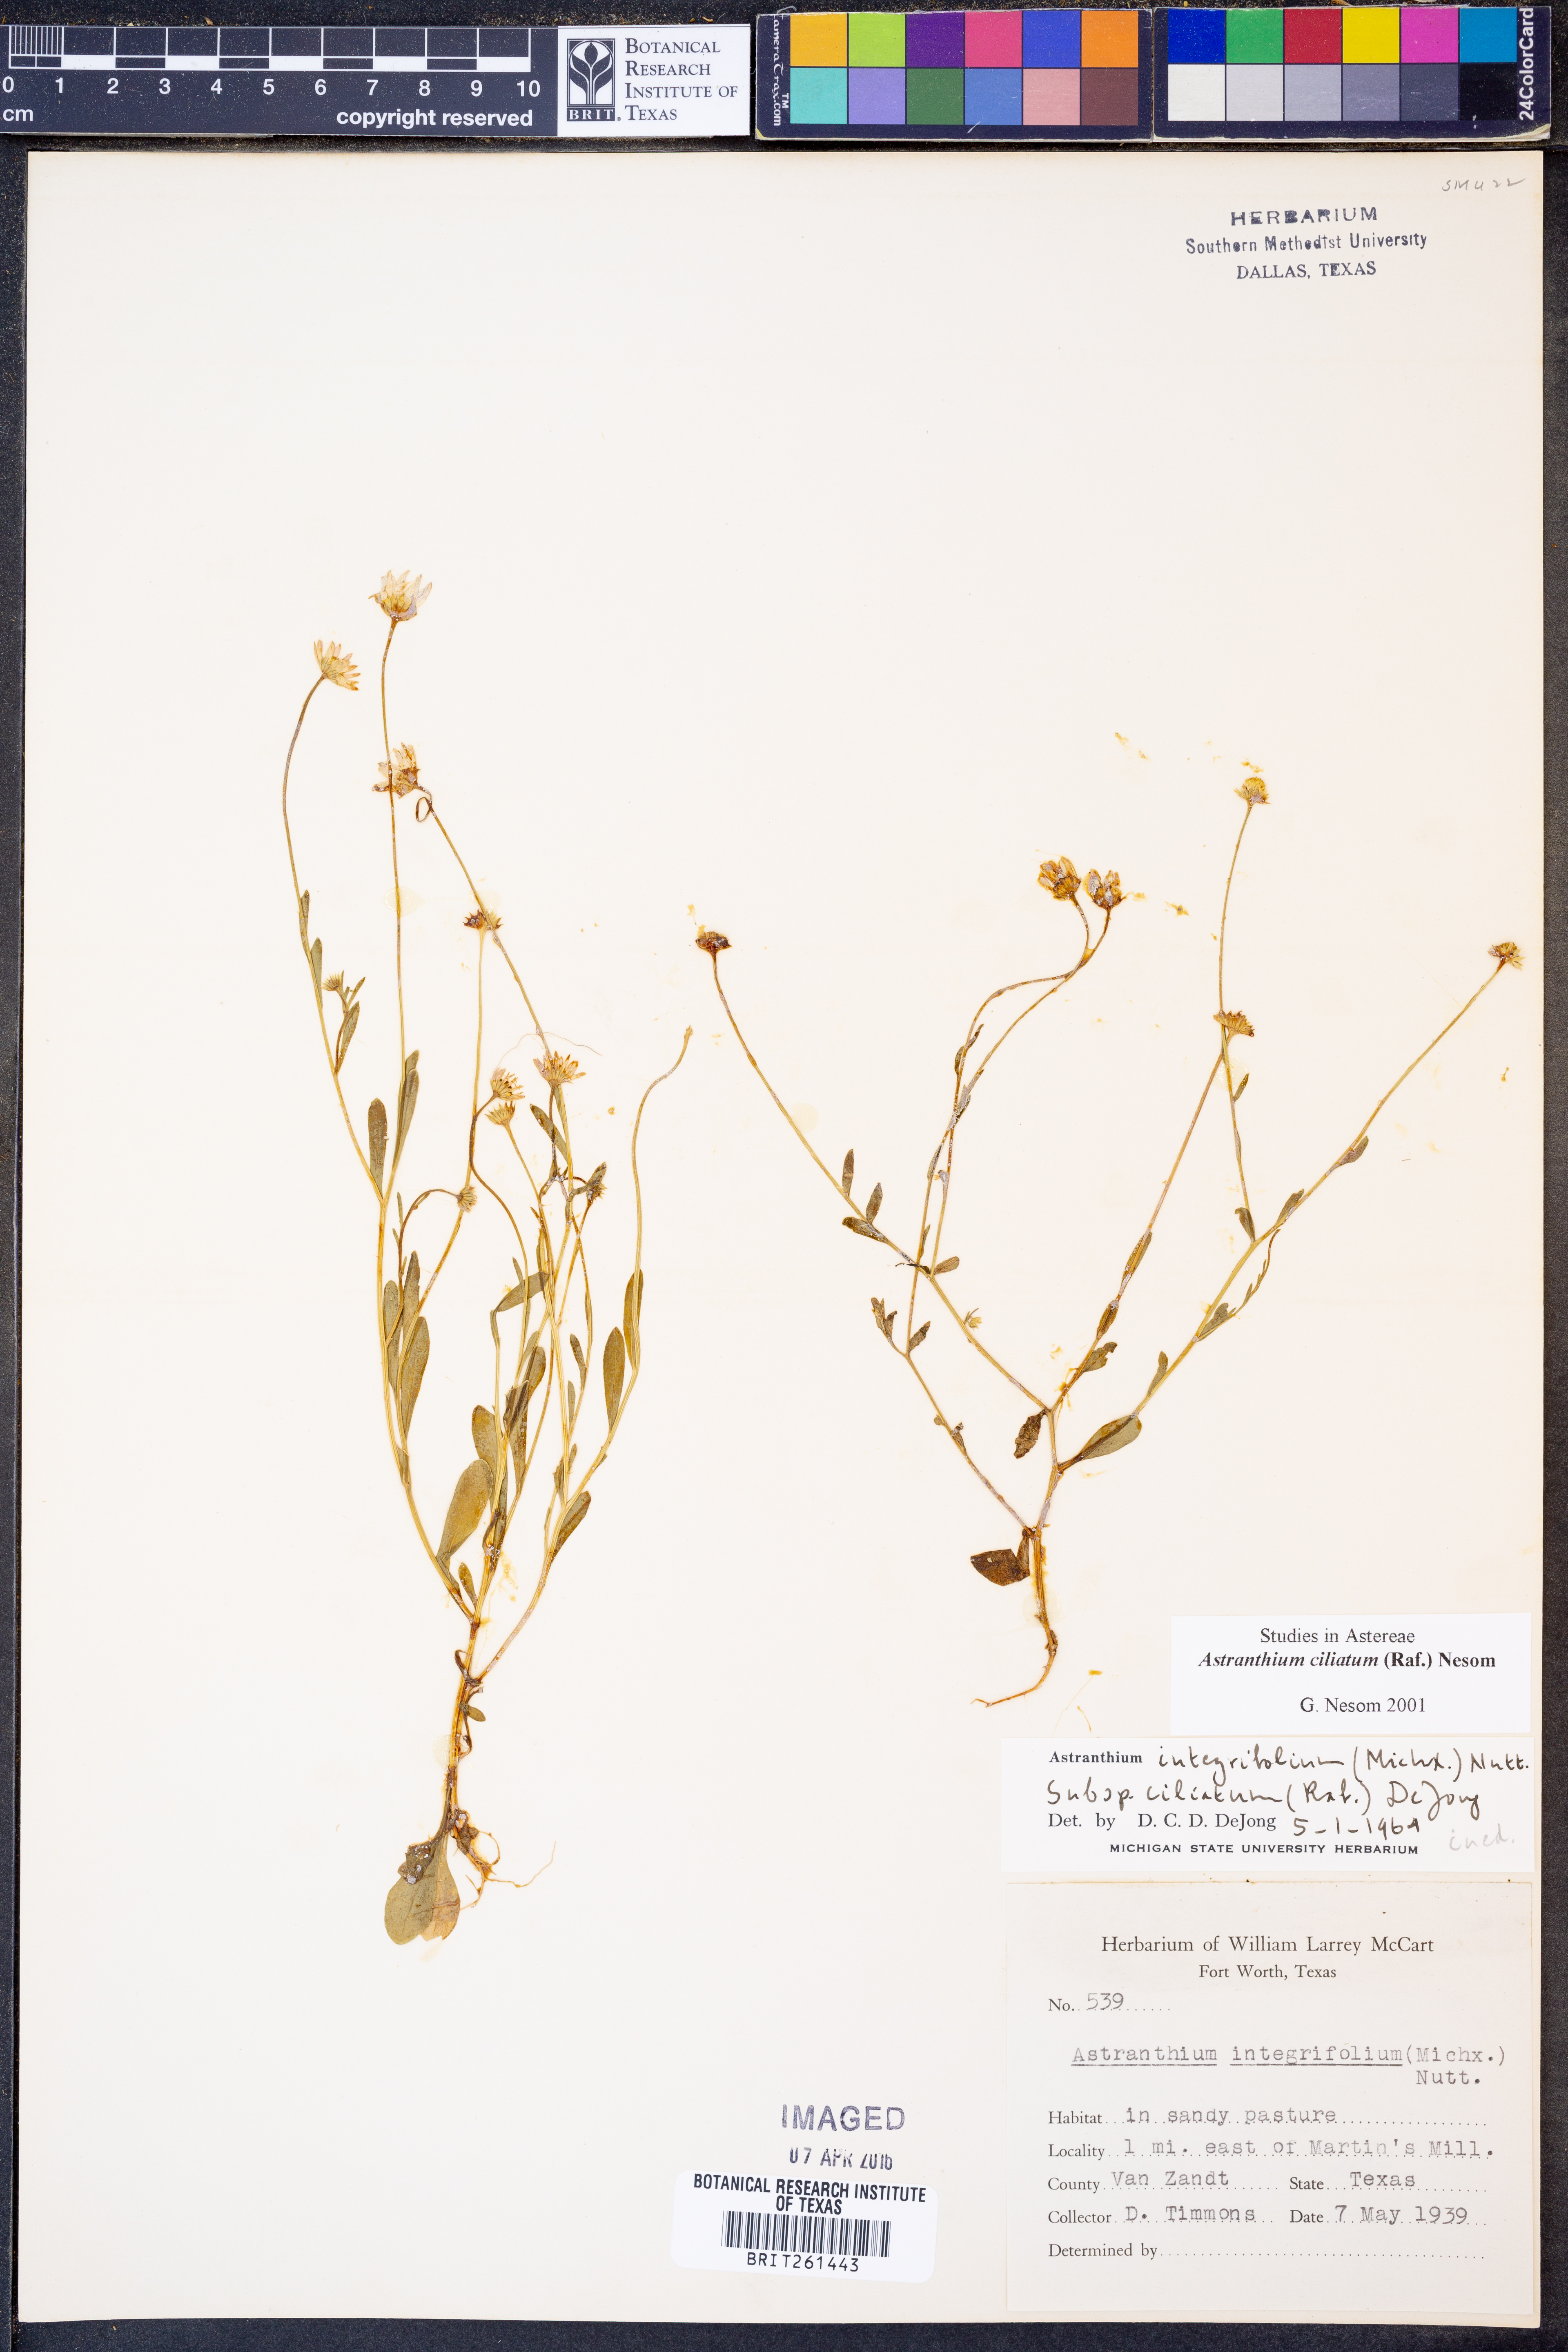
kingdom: Plantae
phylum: Tracheophyta
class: Magnoliopsida
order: Asterales
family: Asteraceae
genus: Astranthium
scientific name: Astranthium ciliatum
